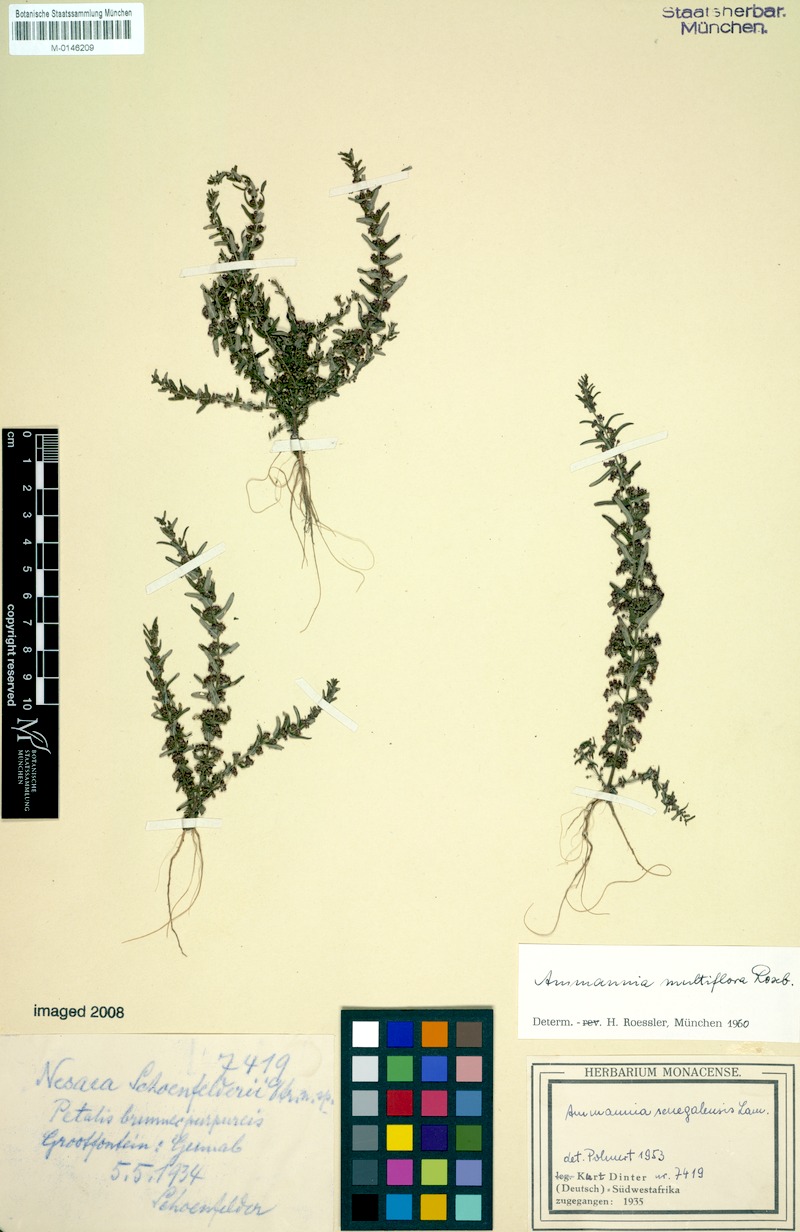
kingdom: Plantae
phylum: Tracheophyta
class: Magnoliopsida
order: Myrtales
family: Lythraceae
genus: Ammannia
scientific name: Ammannia auriculata
